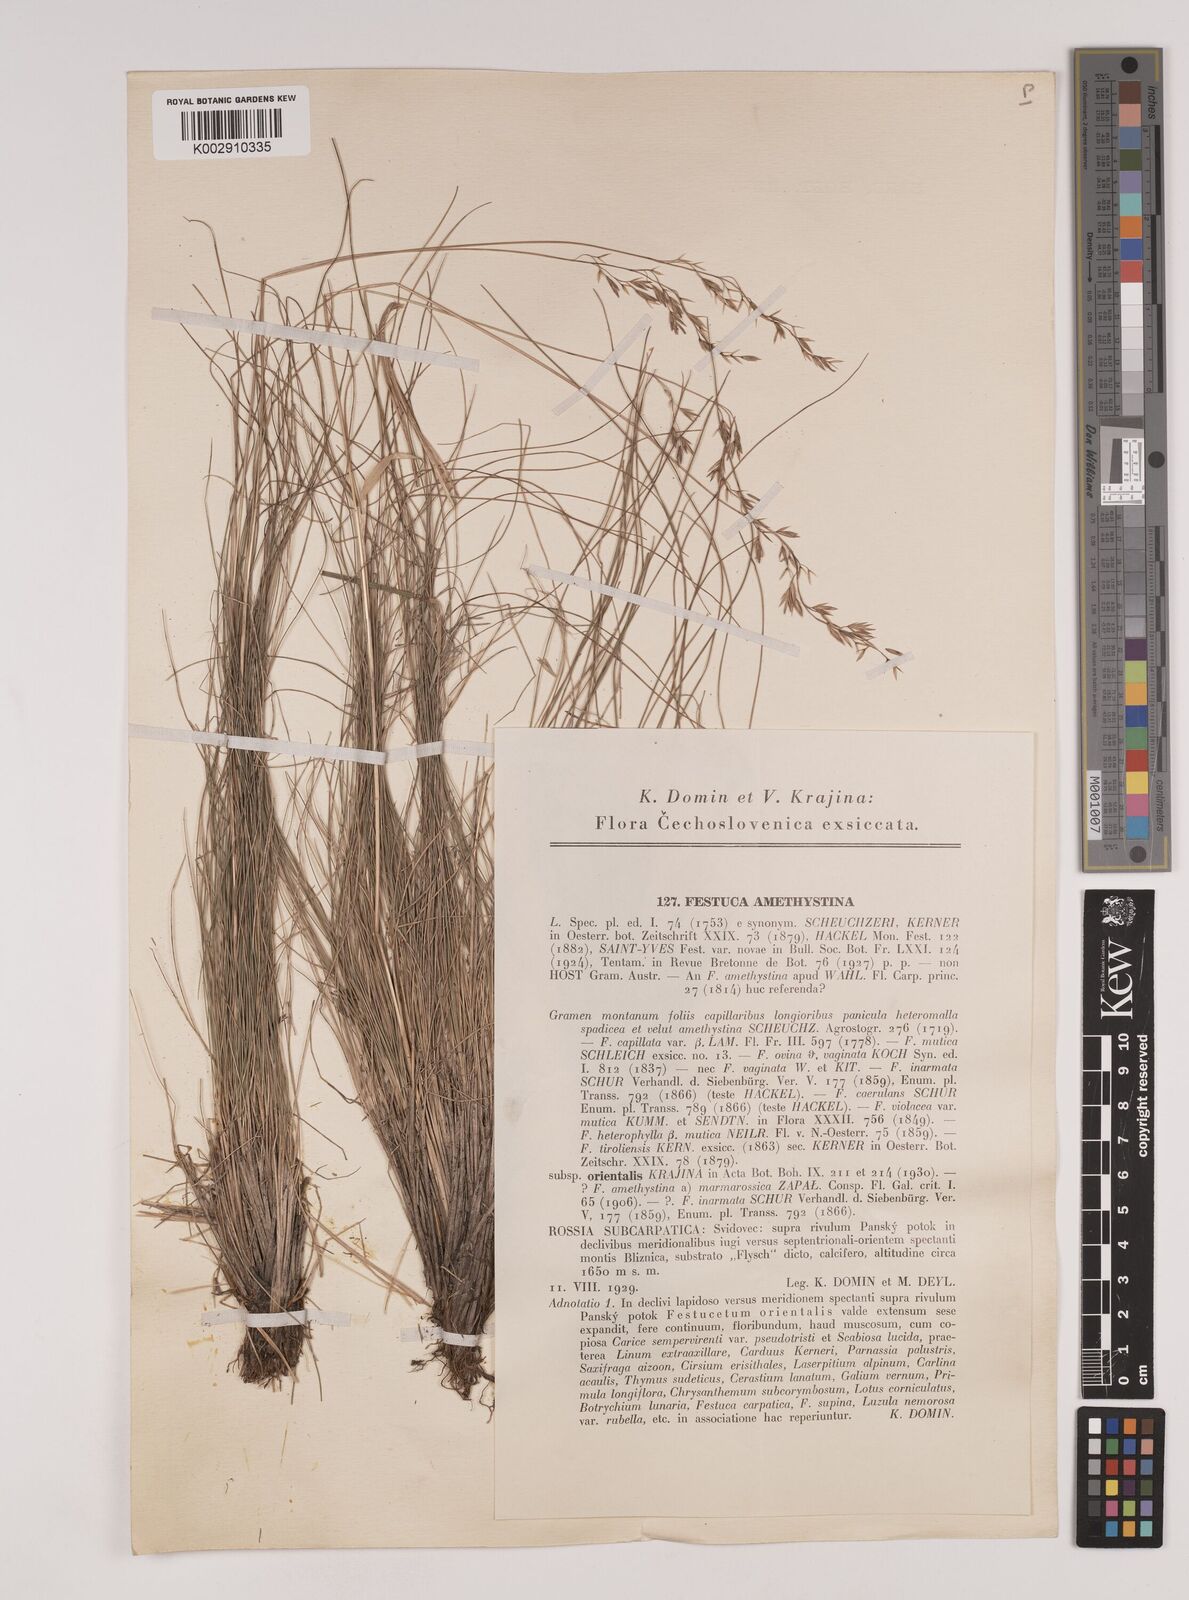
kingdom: Plantae
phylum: Tracheophyta
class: Liliopsida
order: Poales
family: Poaceae
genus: Festuca
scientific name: Festuca amethystina
